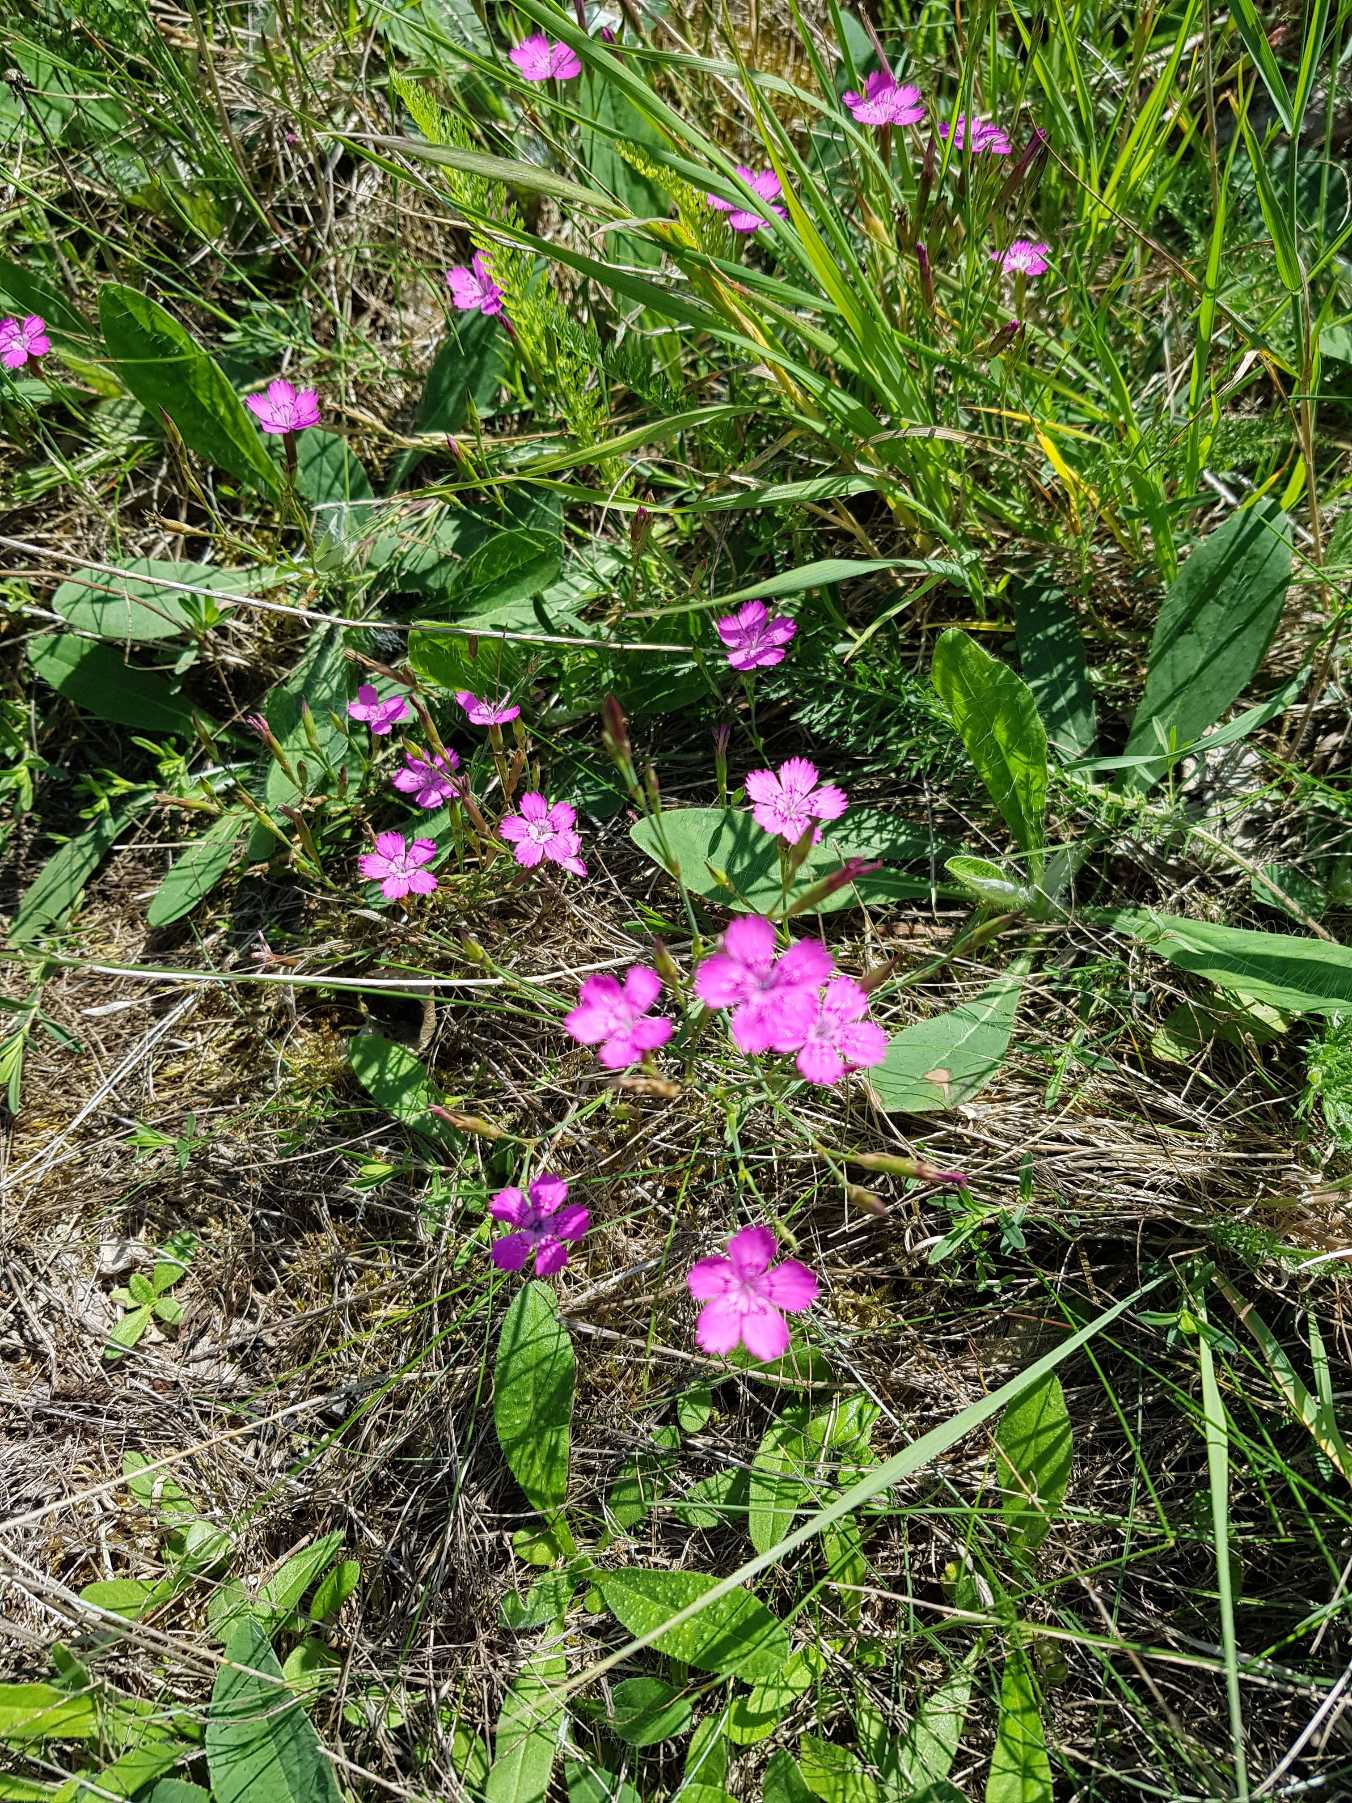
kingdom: Plantae
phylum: Tracheophyta
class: Magnoliopsida
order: Caryophyllales
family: Caryophyllaceae
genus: Dianthus
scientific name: Dianthus deltoides
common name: Bakke-nellike
